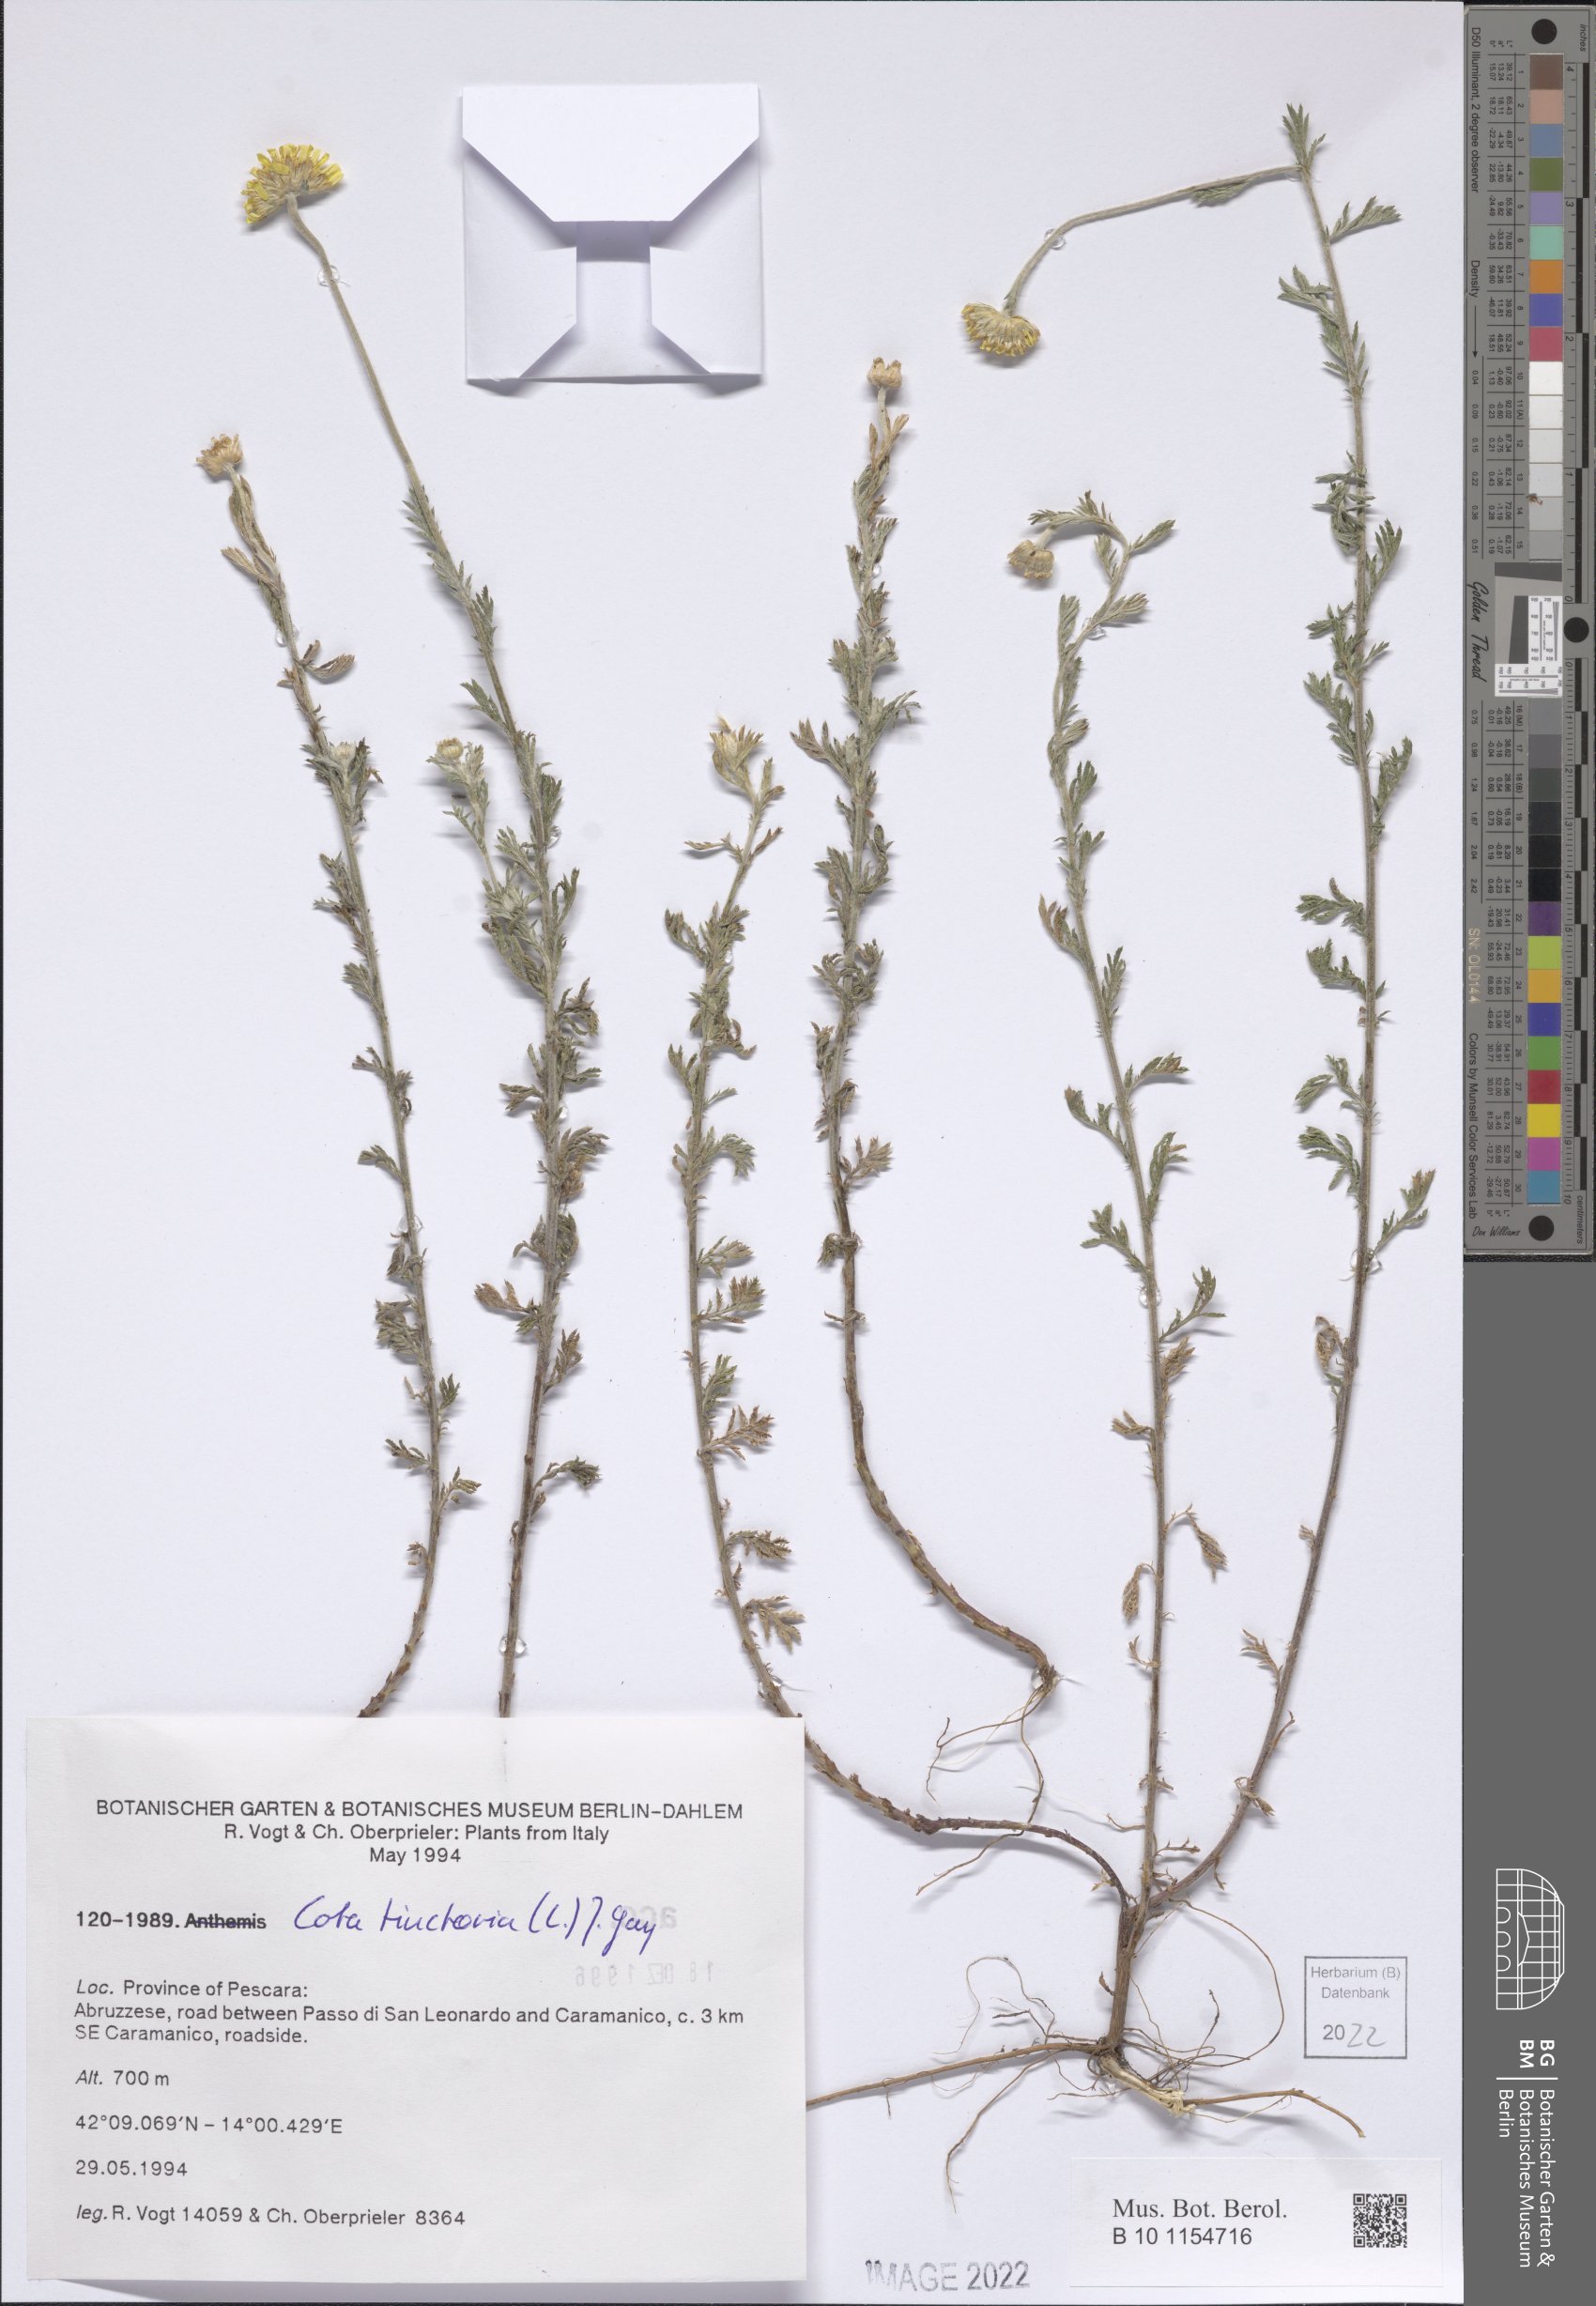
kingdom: Plantae
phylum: Tracheophyta
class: Magnoliopsida
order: Asterales
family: Asteraceae
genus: Cota
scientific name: Cota tinctoria
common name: Golden chamomile
